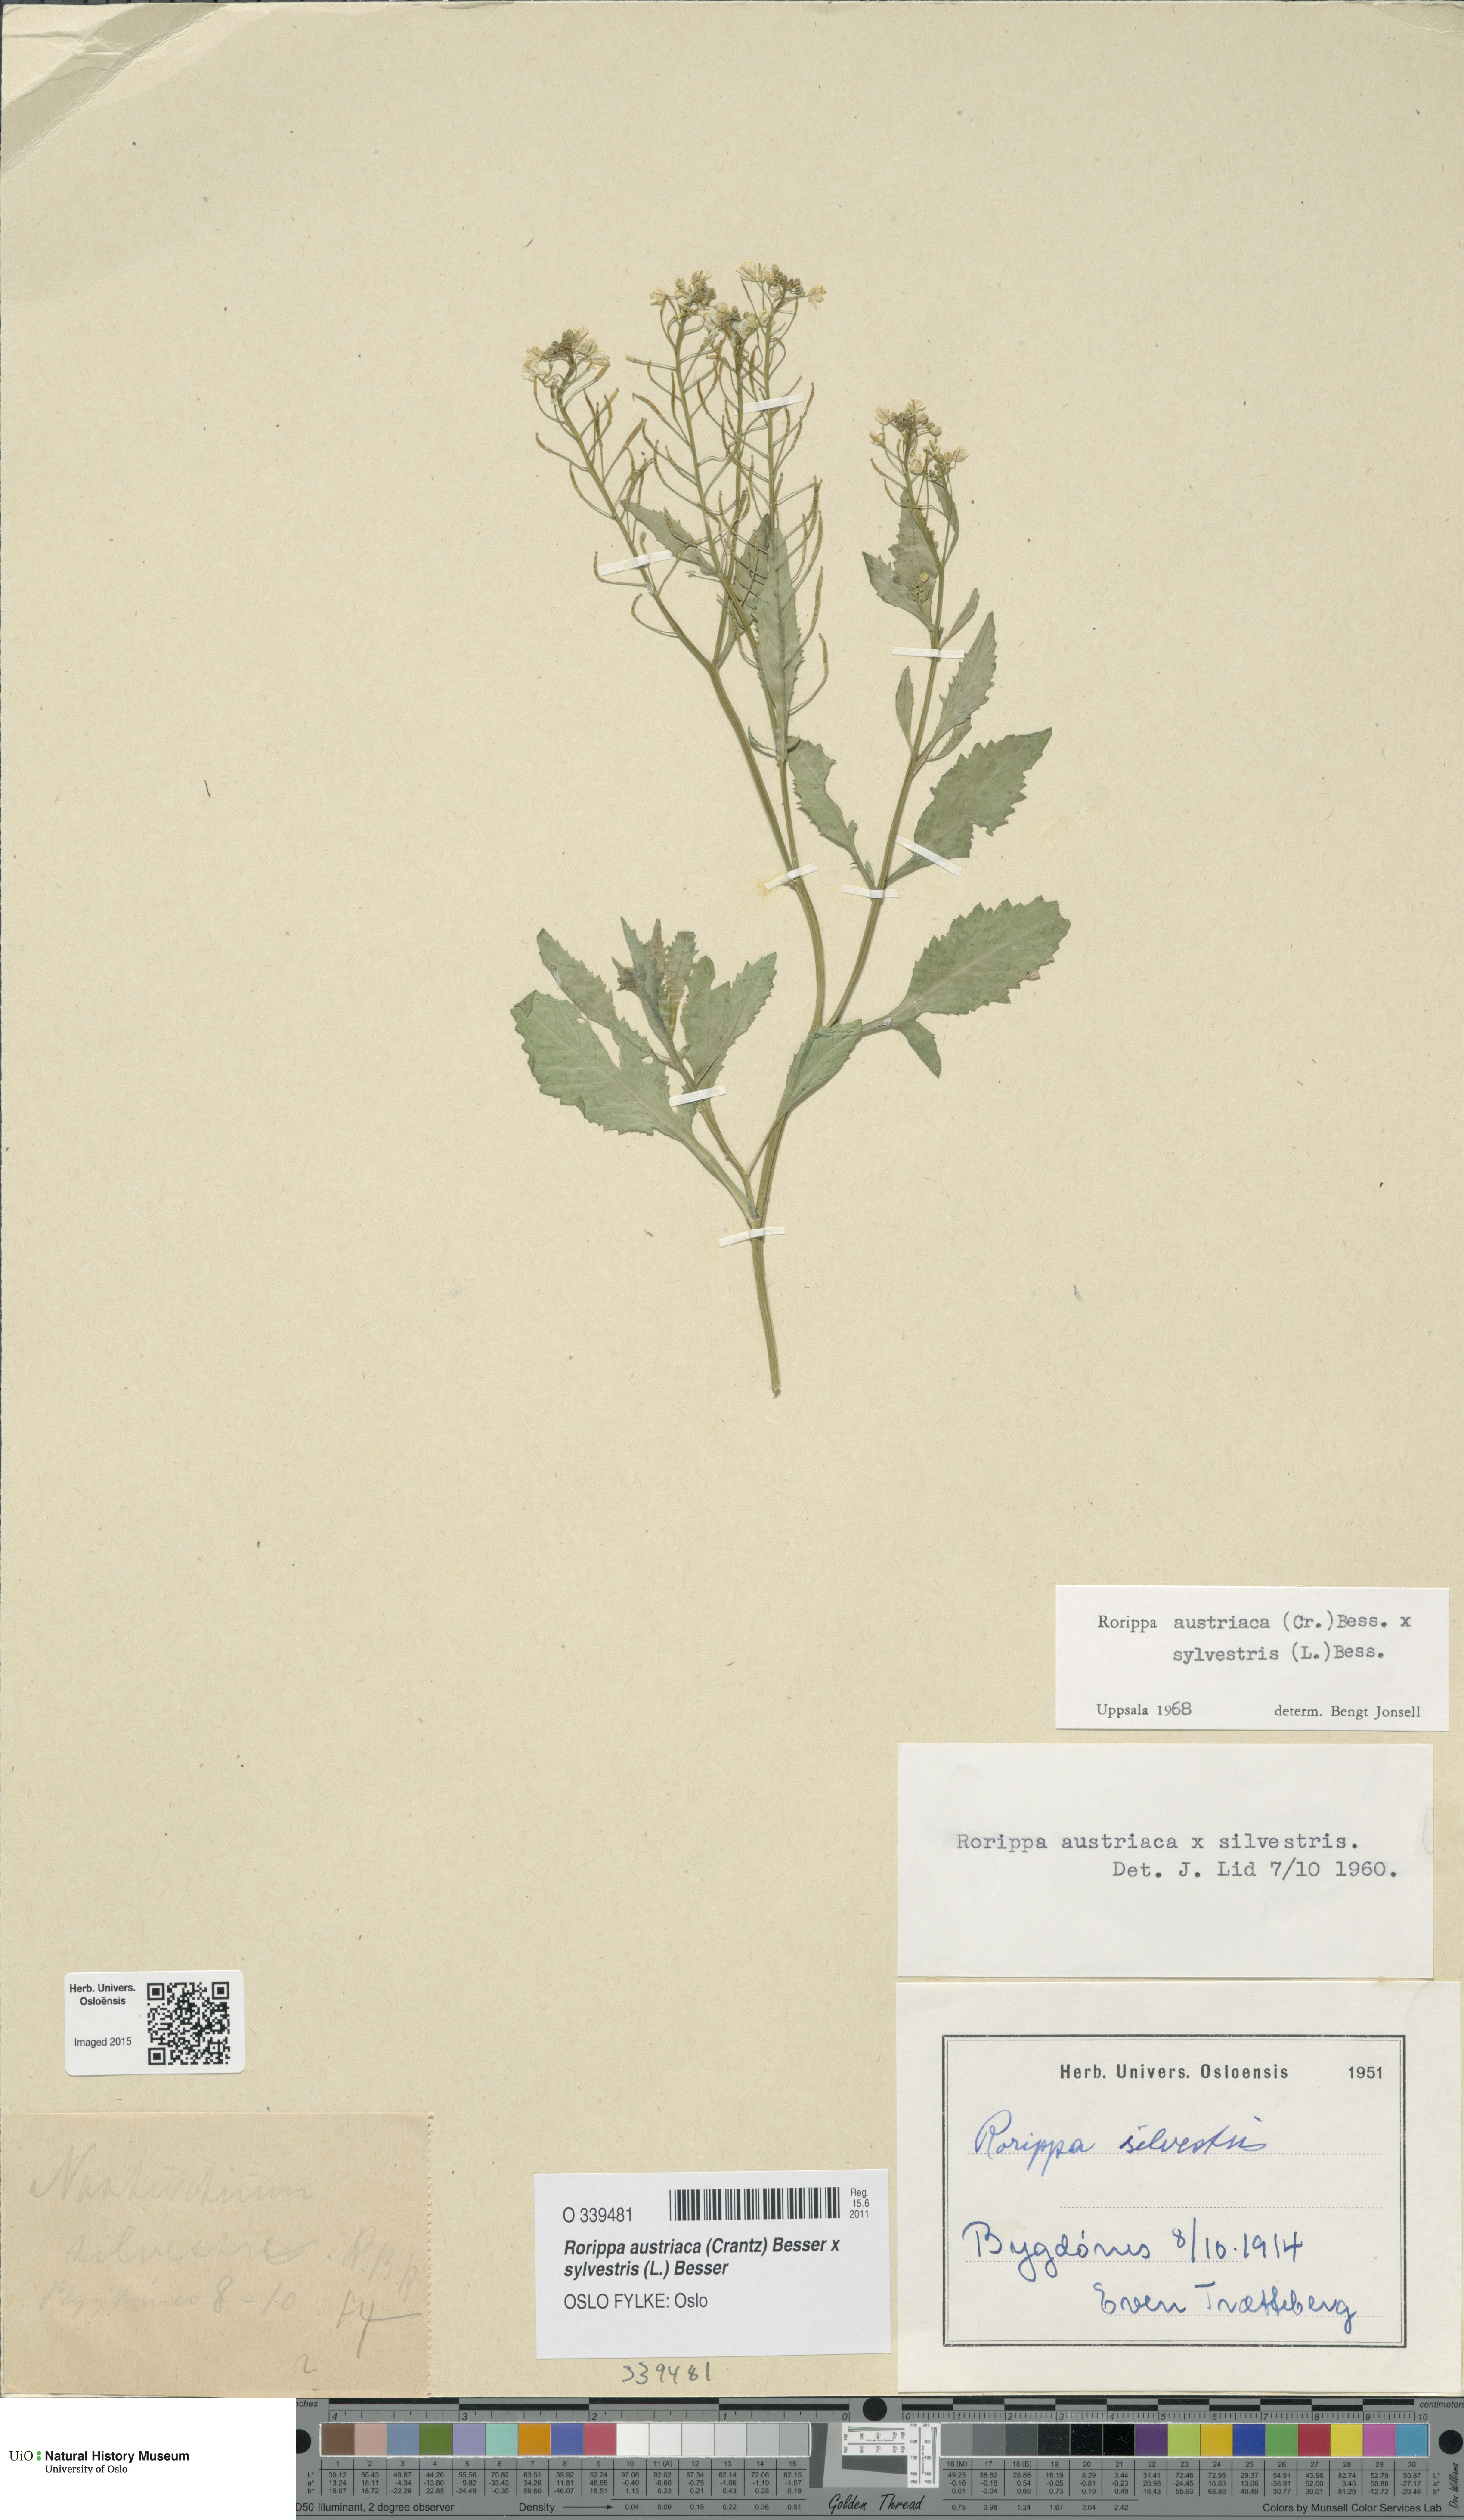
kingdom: Plantae
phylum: Tracheophyta
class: Magnoliopsida
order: Brassicales
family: Brassicaceae
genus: Rorippa
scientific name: Rorippa
